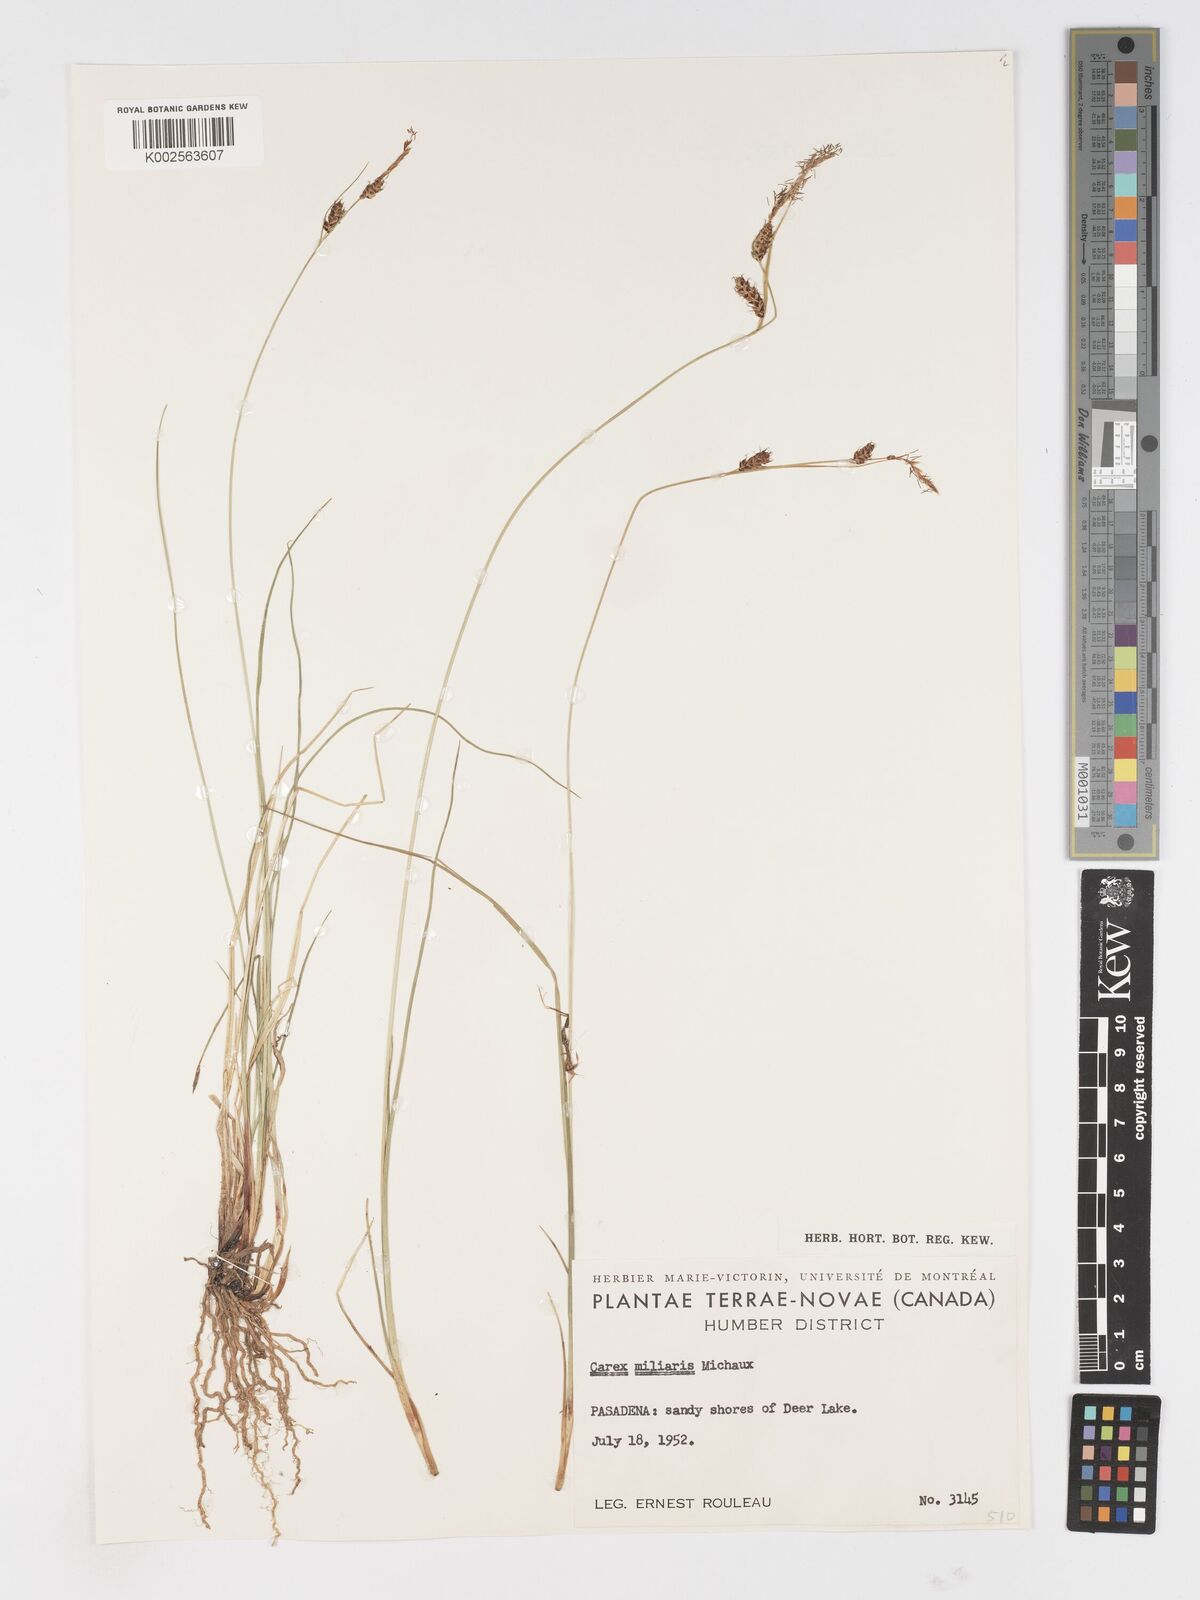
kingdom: Plantae
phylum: Tracheophyta
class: Liliopsida
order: Poales
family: Cyperaceae
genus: Carex
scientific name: Carex miliaris
